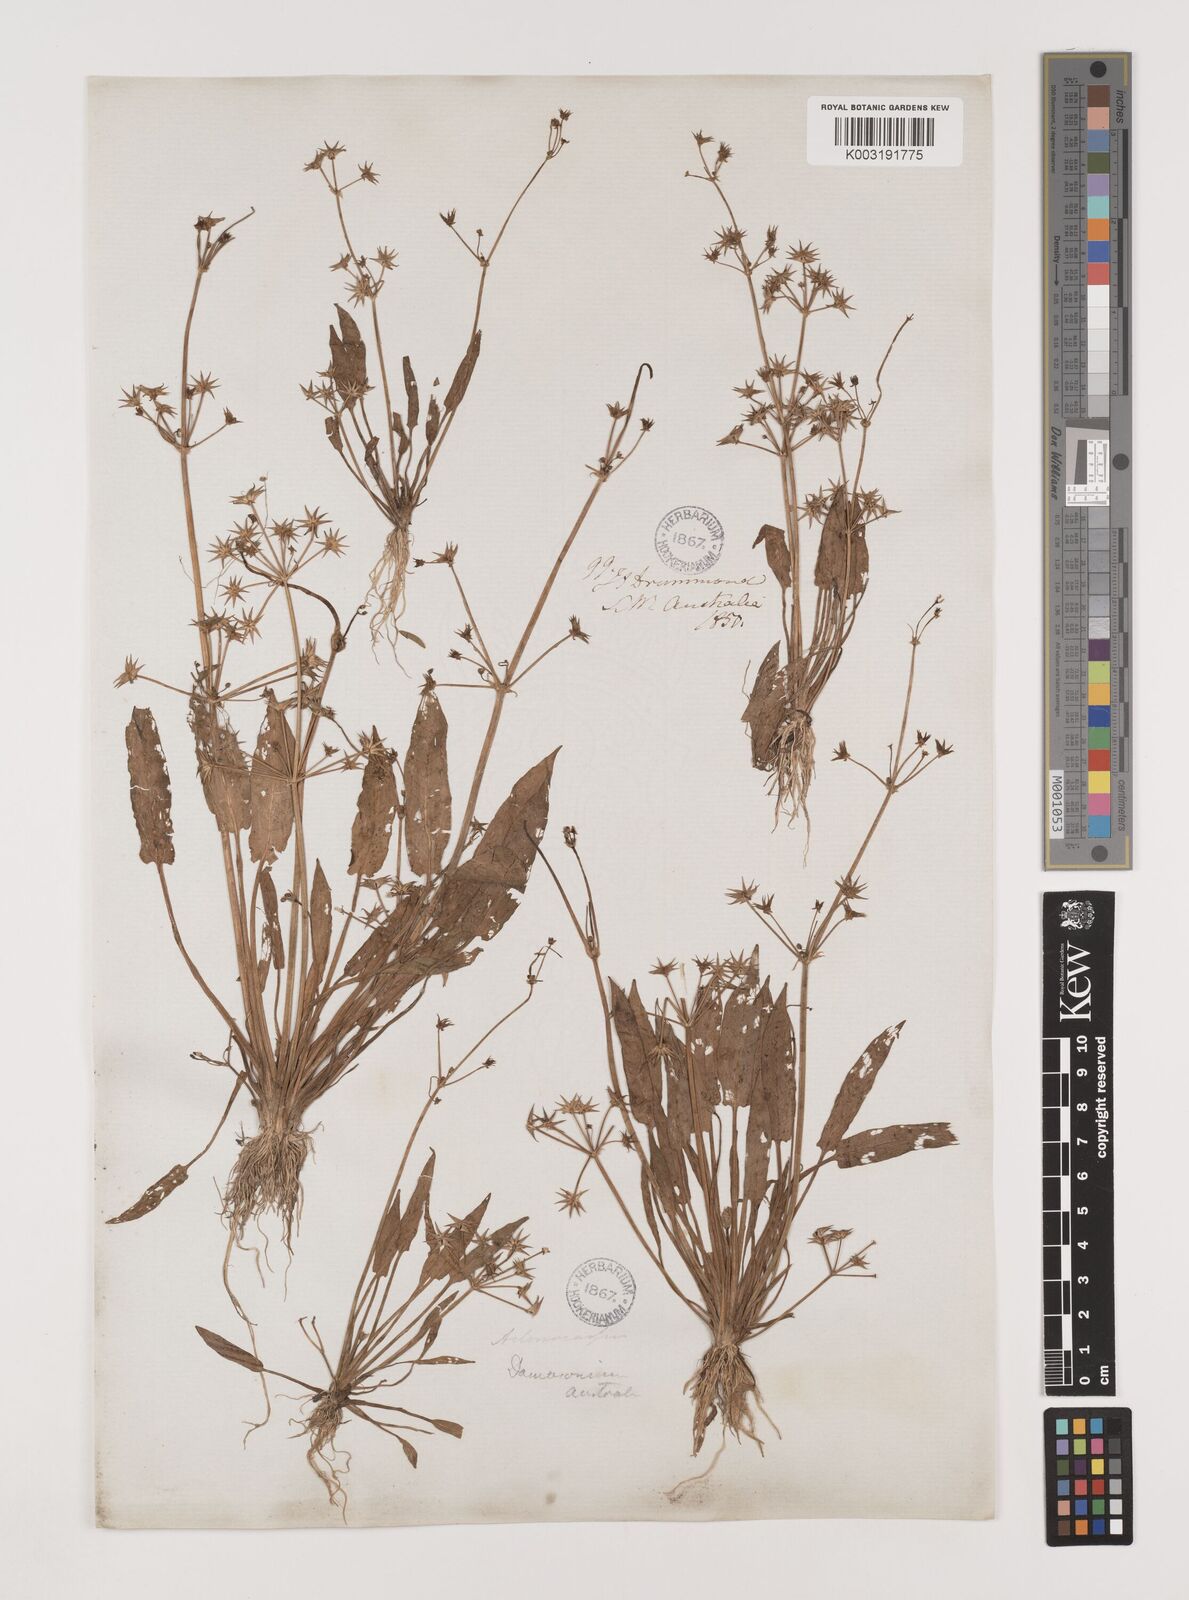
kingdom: Plantae
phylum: Tracheophyta
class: Liliopsida
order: Alismatales
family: Alismataceae
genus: Damasonium
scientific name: Damasonium minus
